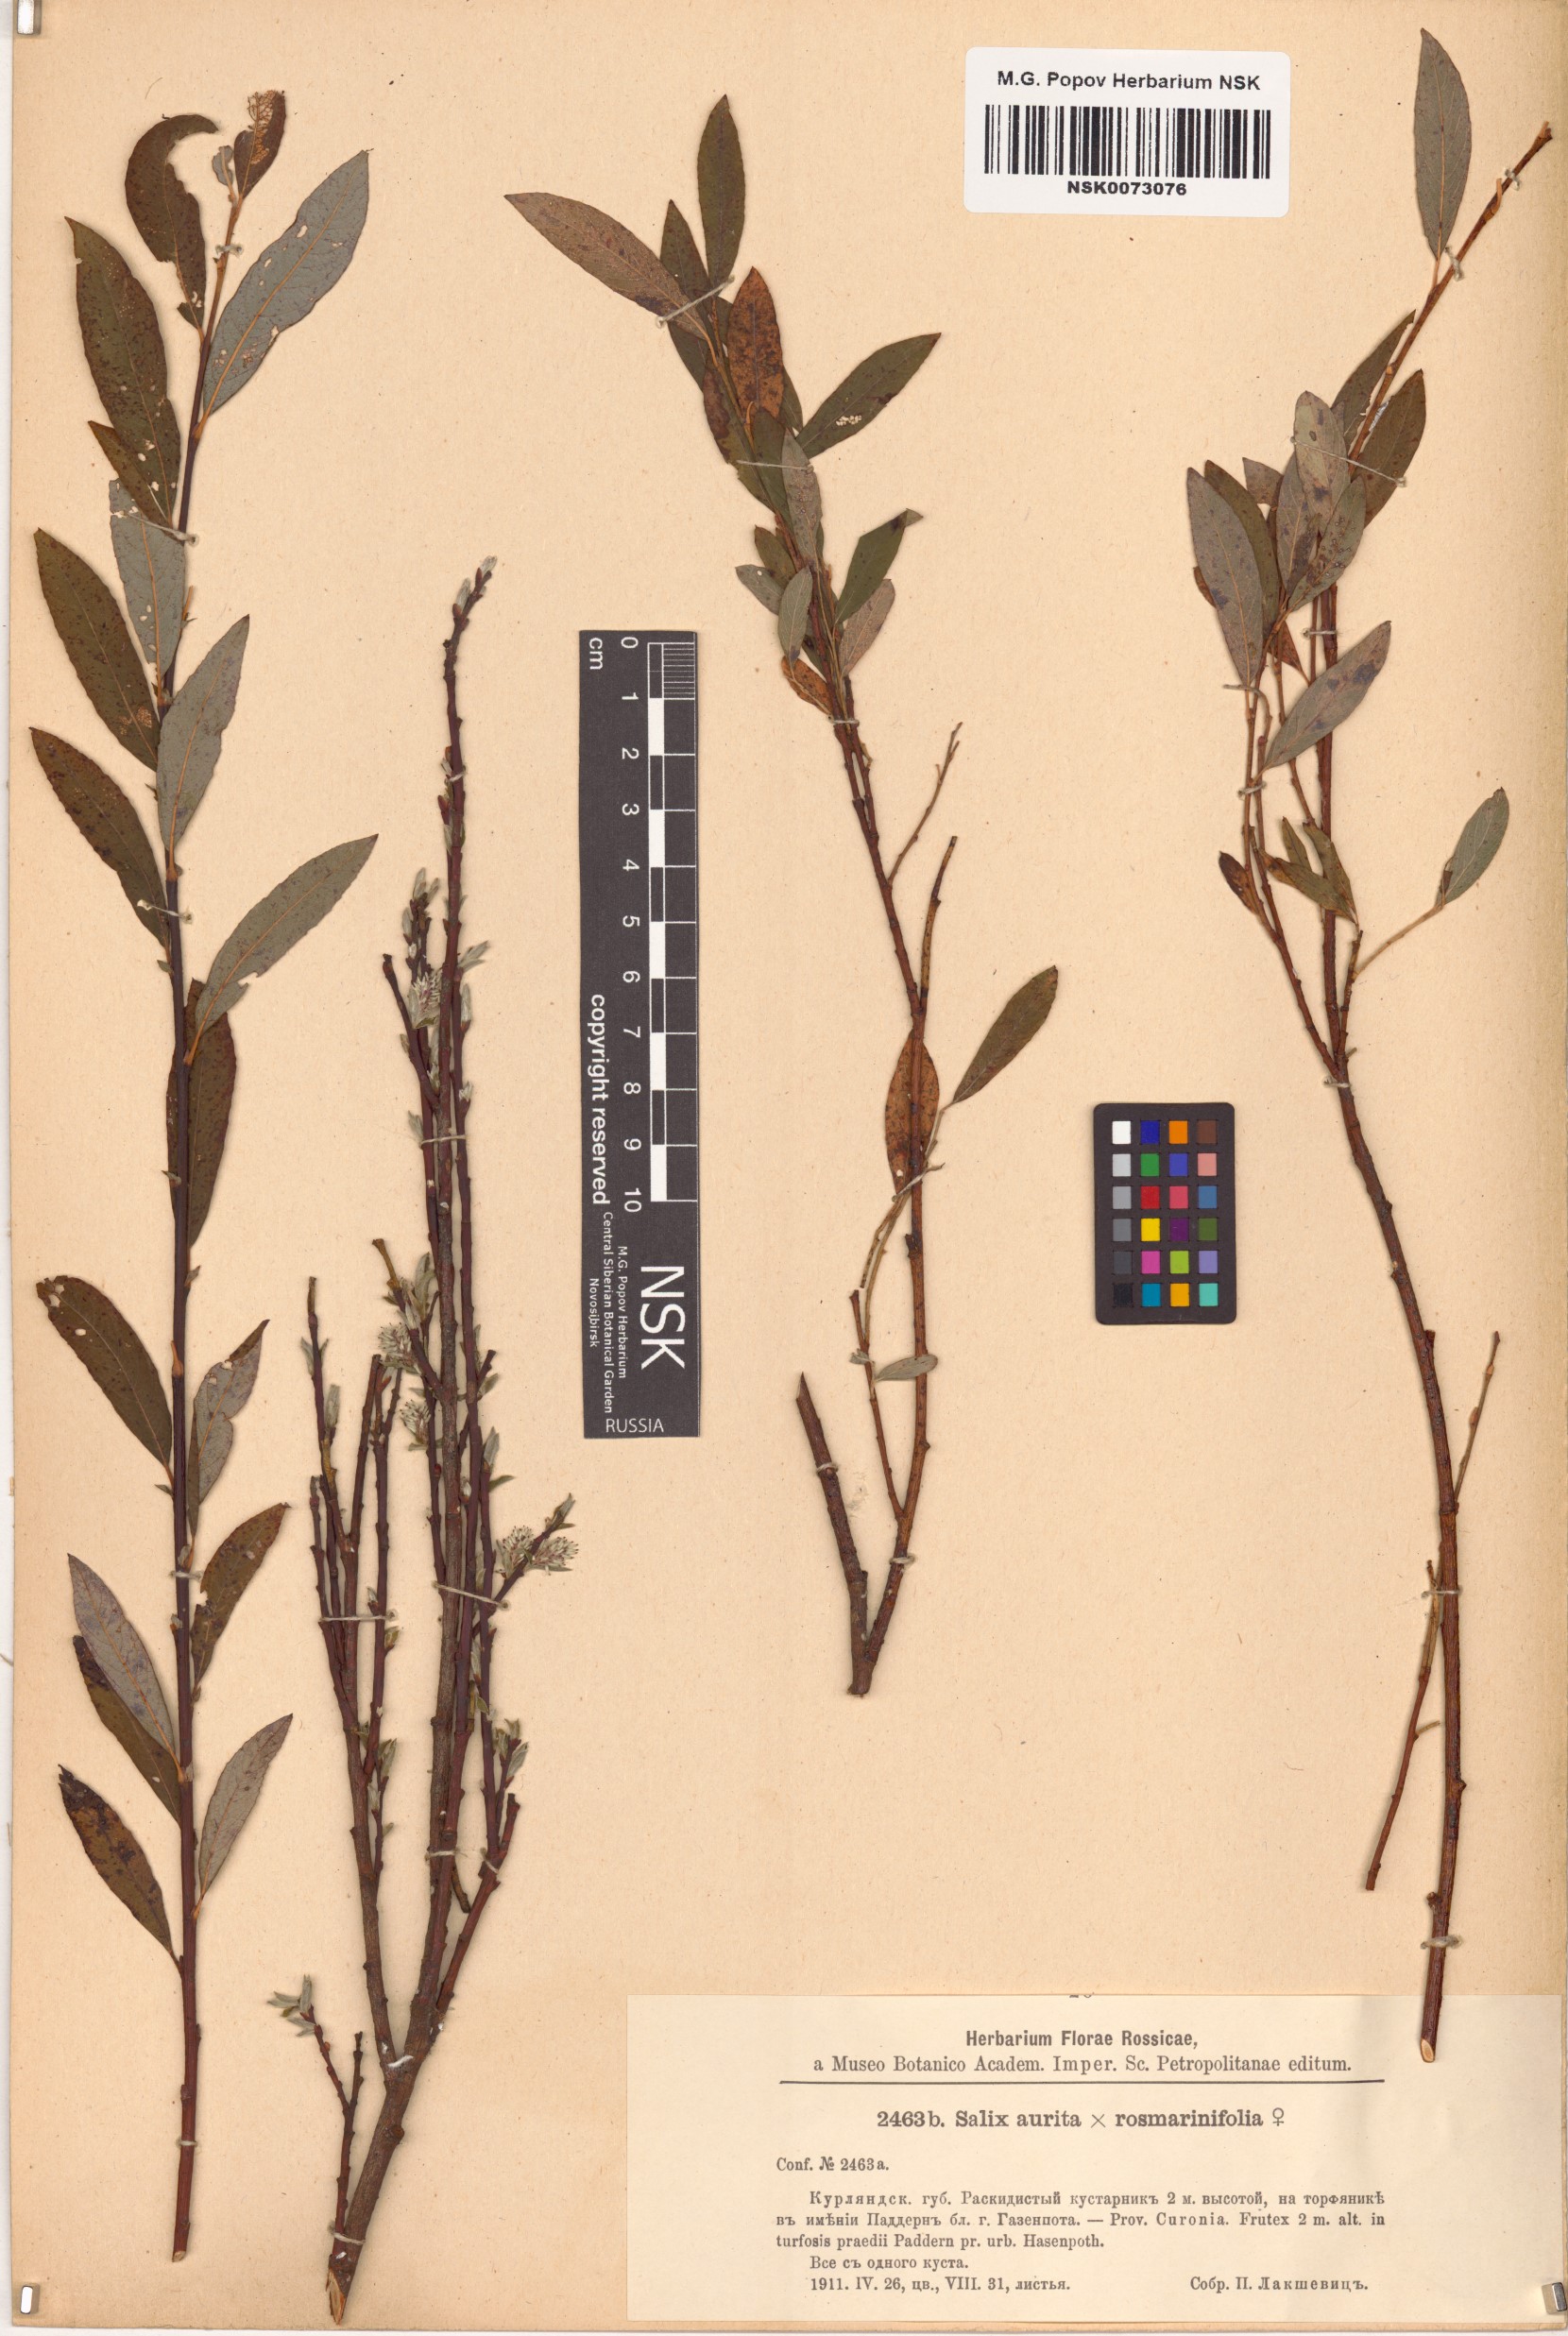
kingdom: Plantae
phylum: Tracheophyta
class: Magnoliopsida
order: Malpighiales
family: Salicaceae
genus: Salix
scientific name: Salix
